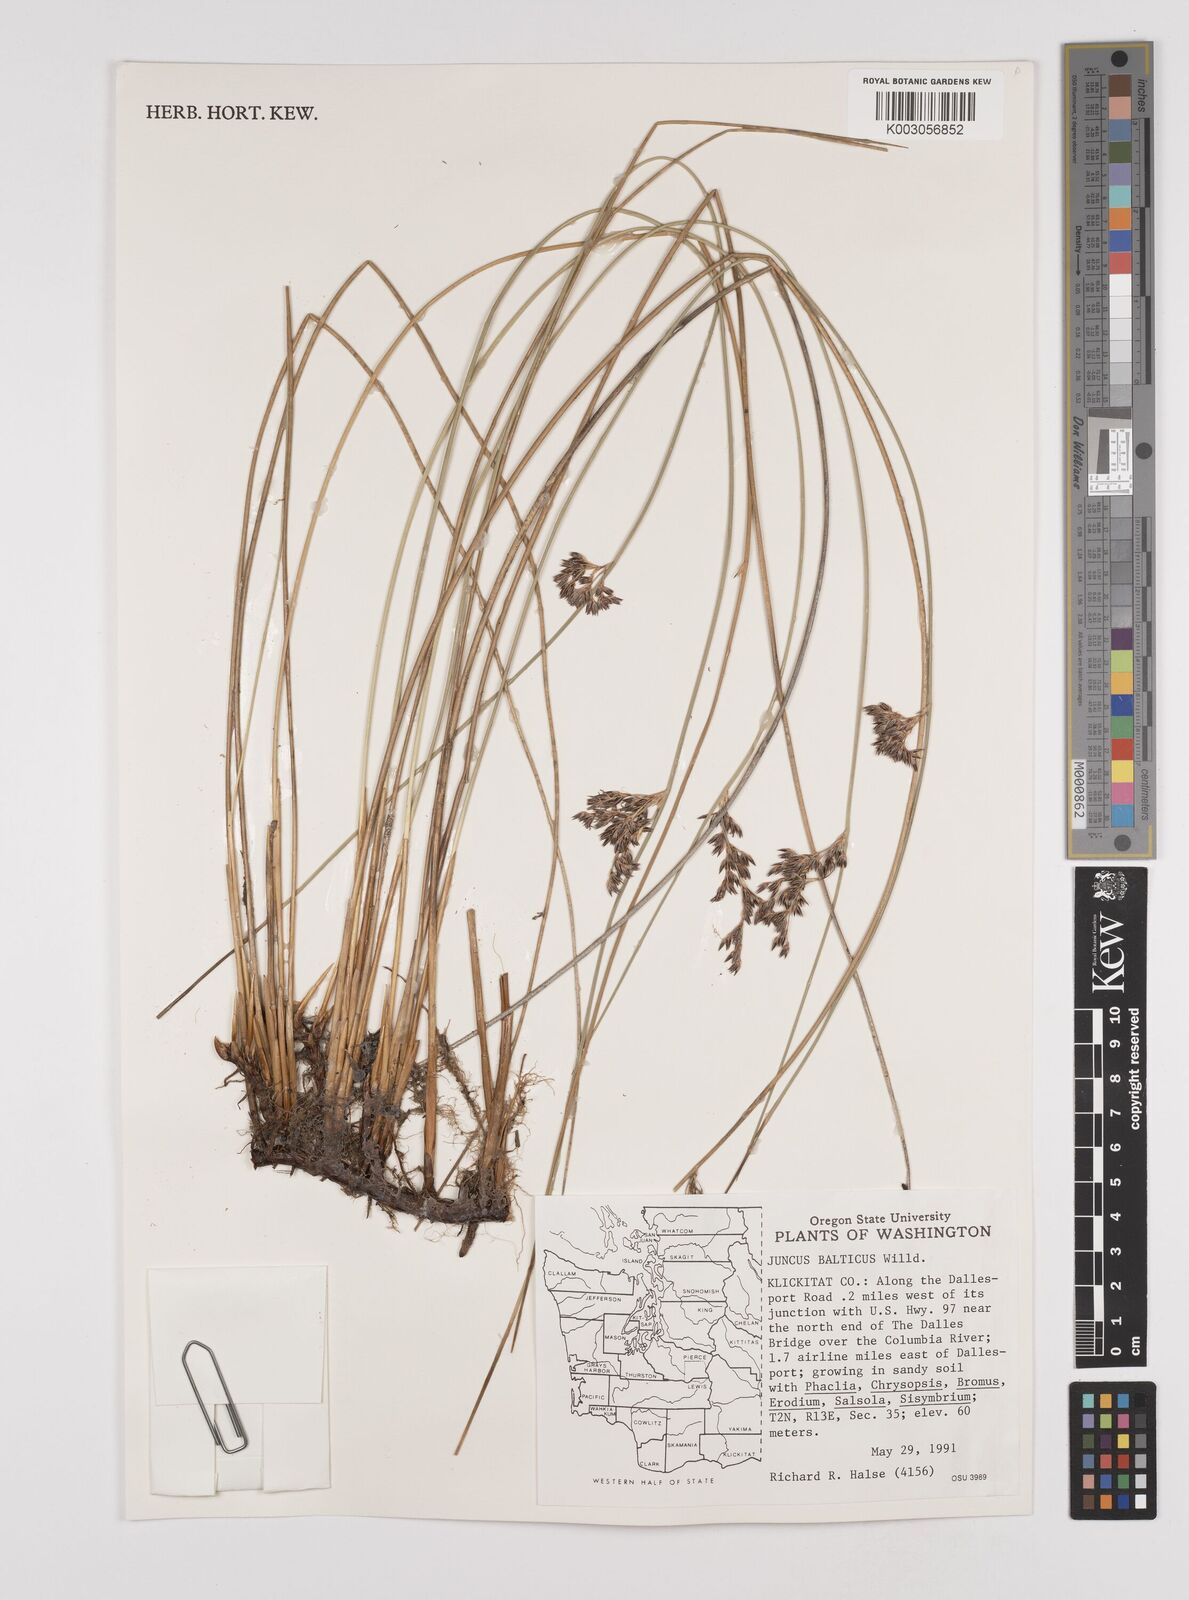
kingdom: Plantae
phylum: Tracheophyta
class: Liliopsida
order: Poales
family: Juncaceae
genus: Juncus
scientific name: Juncus balticus
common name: Baltic rush
